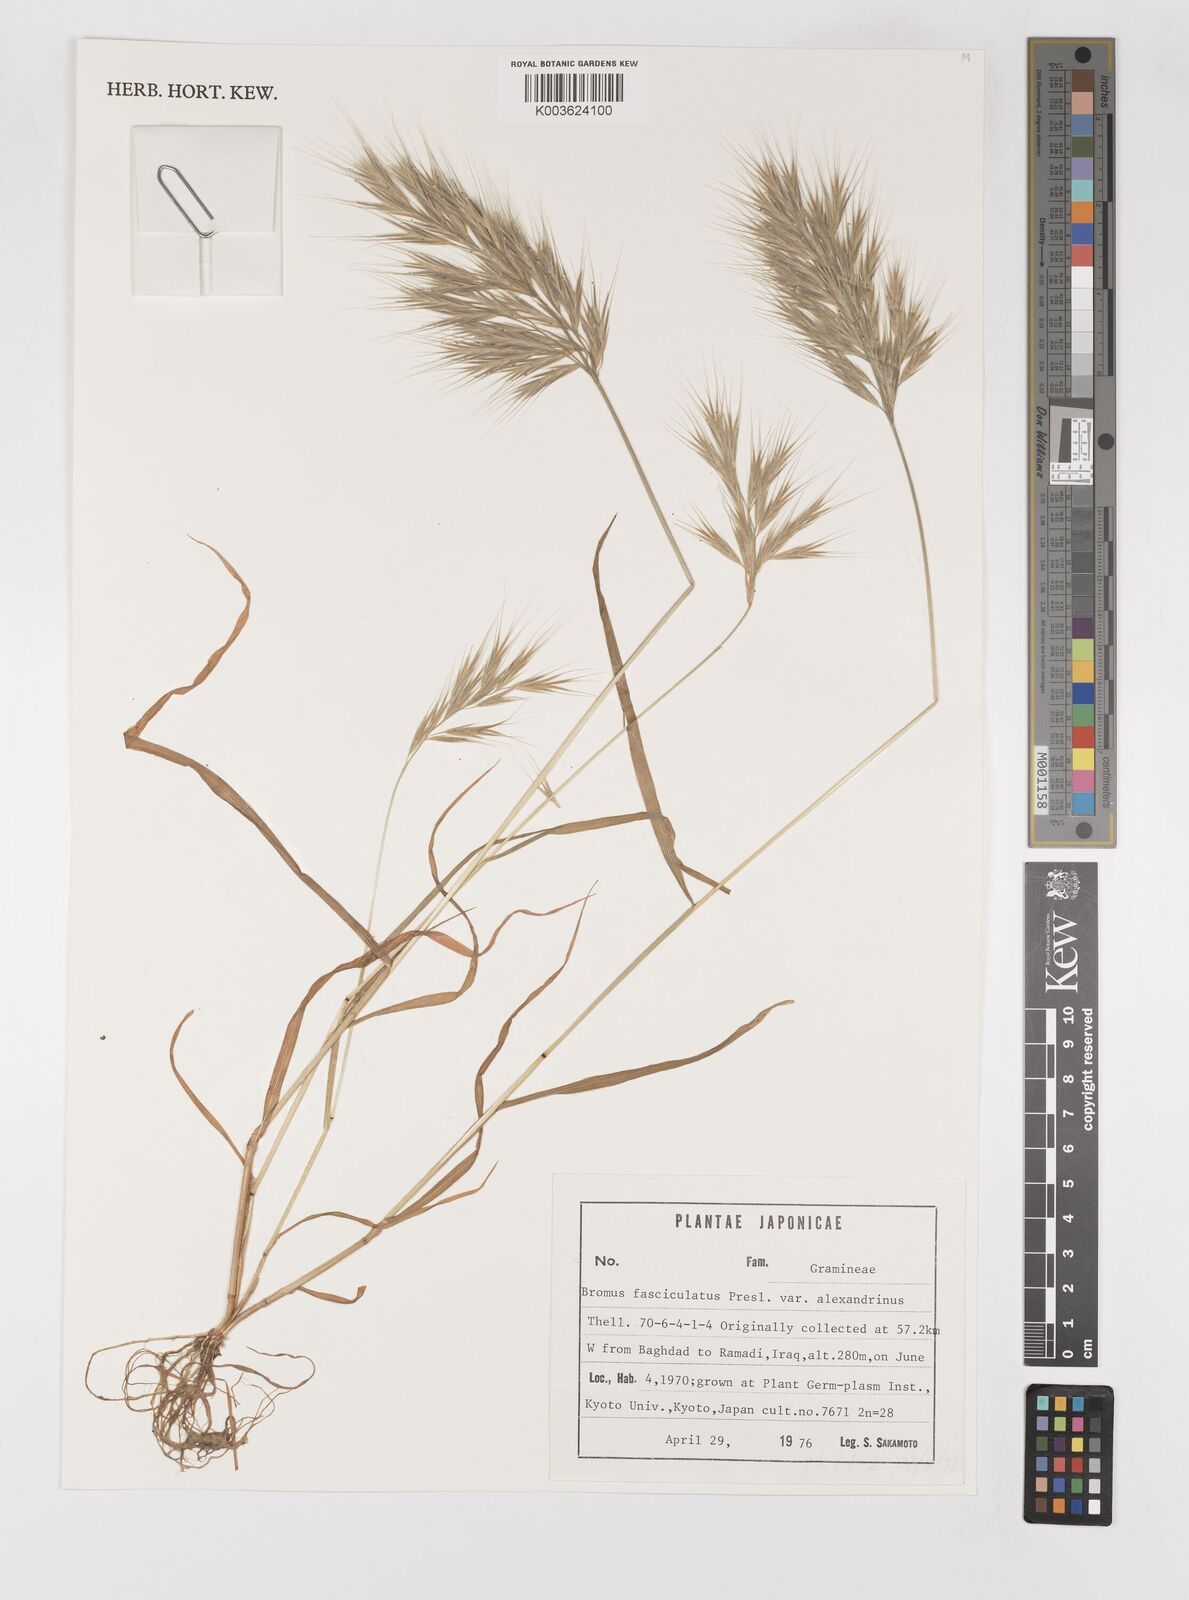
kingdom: Plantae
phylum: Tracheophyta
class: Liliopsida
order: Poales
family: Poaceae
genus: Bromus
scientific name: Bromus fasciculatus
